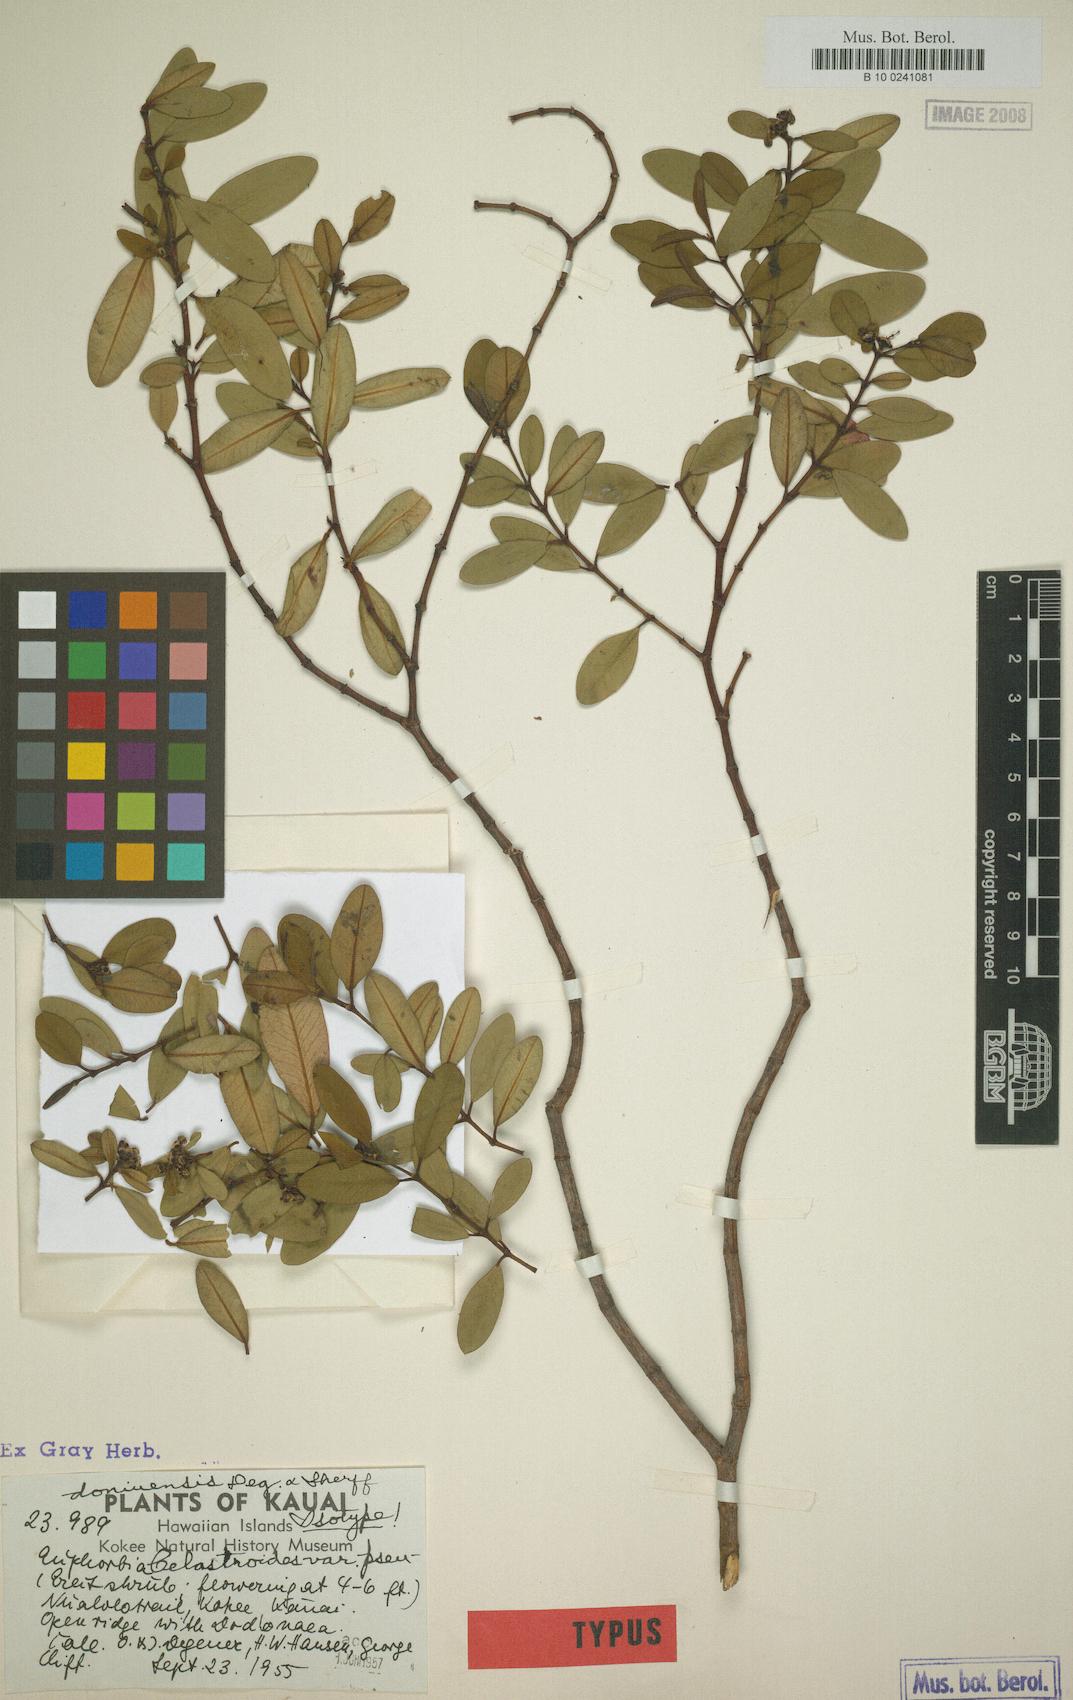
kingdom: Plantae
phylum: Tracheophyta
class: Magnoliopsida
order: Malpighiales
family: Euphorbiaceae
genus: Euphorbia
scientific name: Euphorbia atrococca
